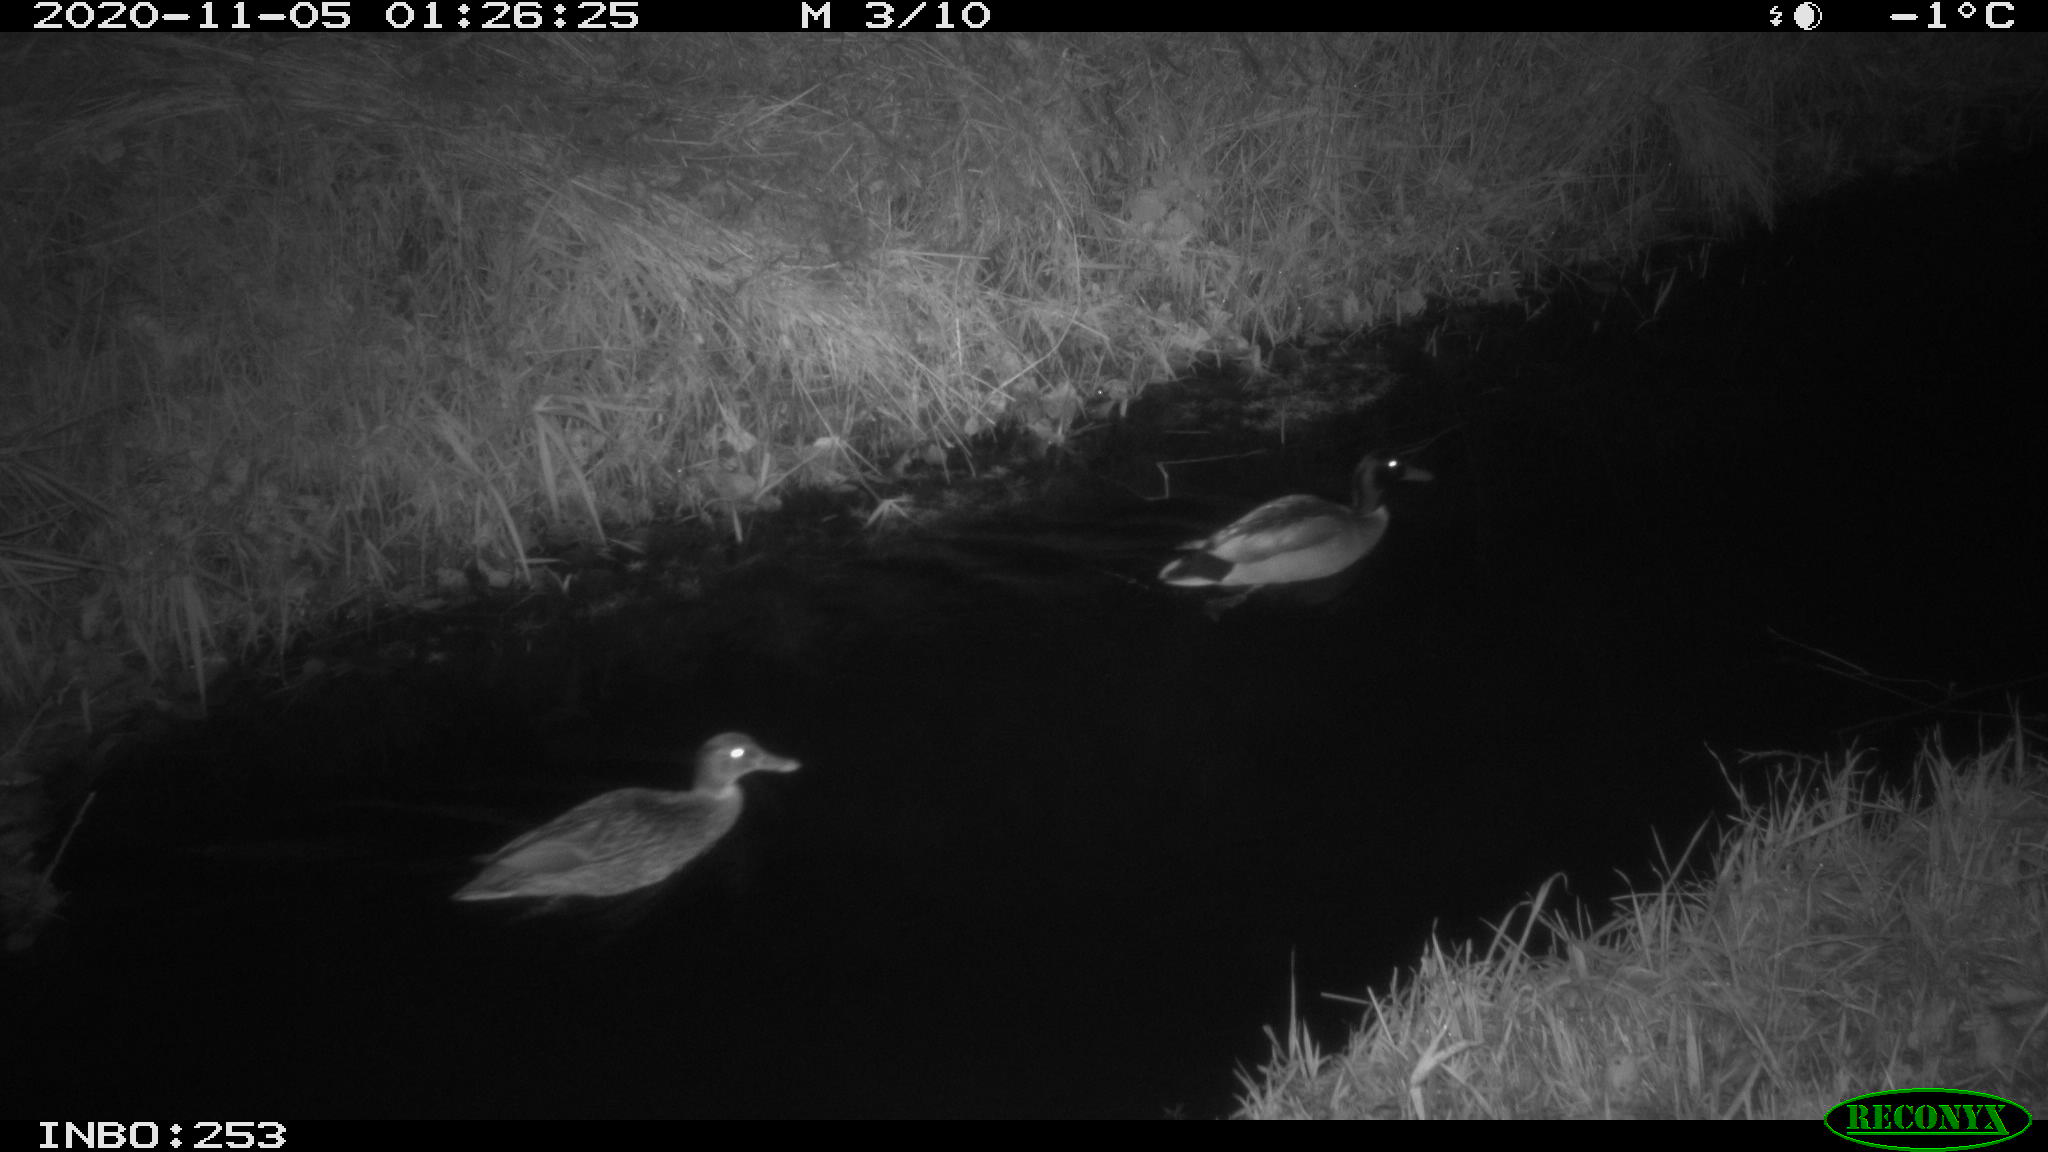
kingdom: Animalia
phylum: Chordata
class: Aves
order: Anseriformes
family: Anatidae
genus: Anas
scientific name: Anas platyrhynchos
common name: Mallard
